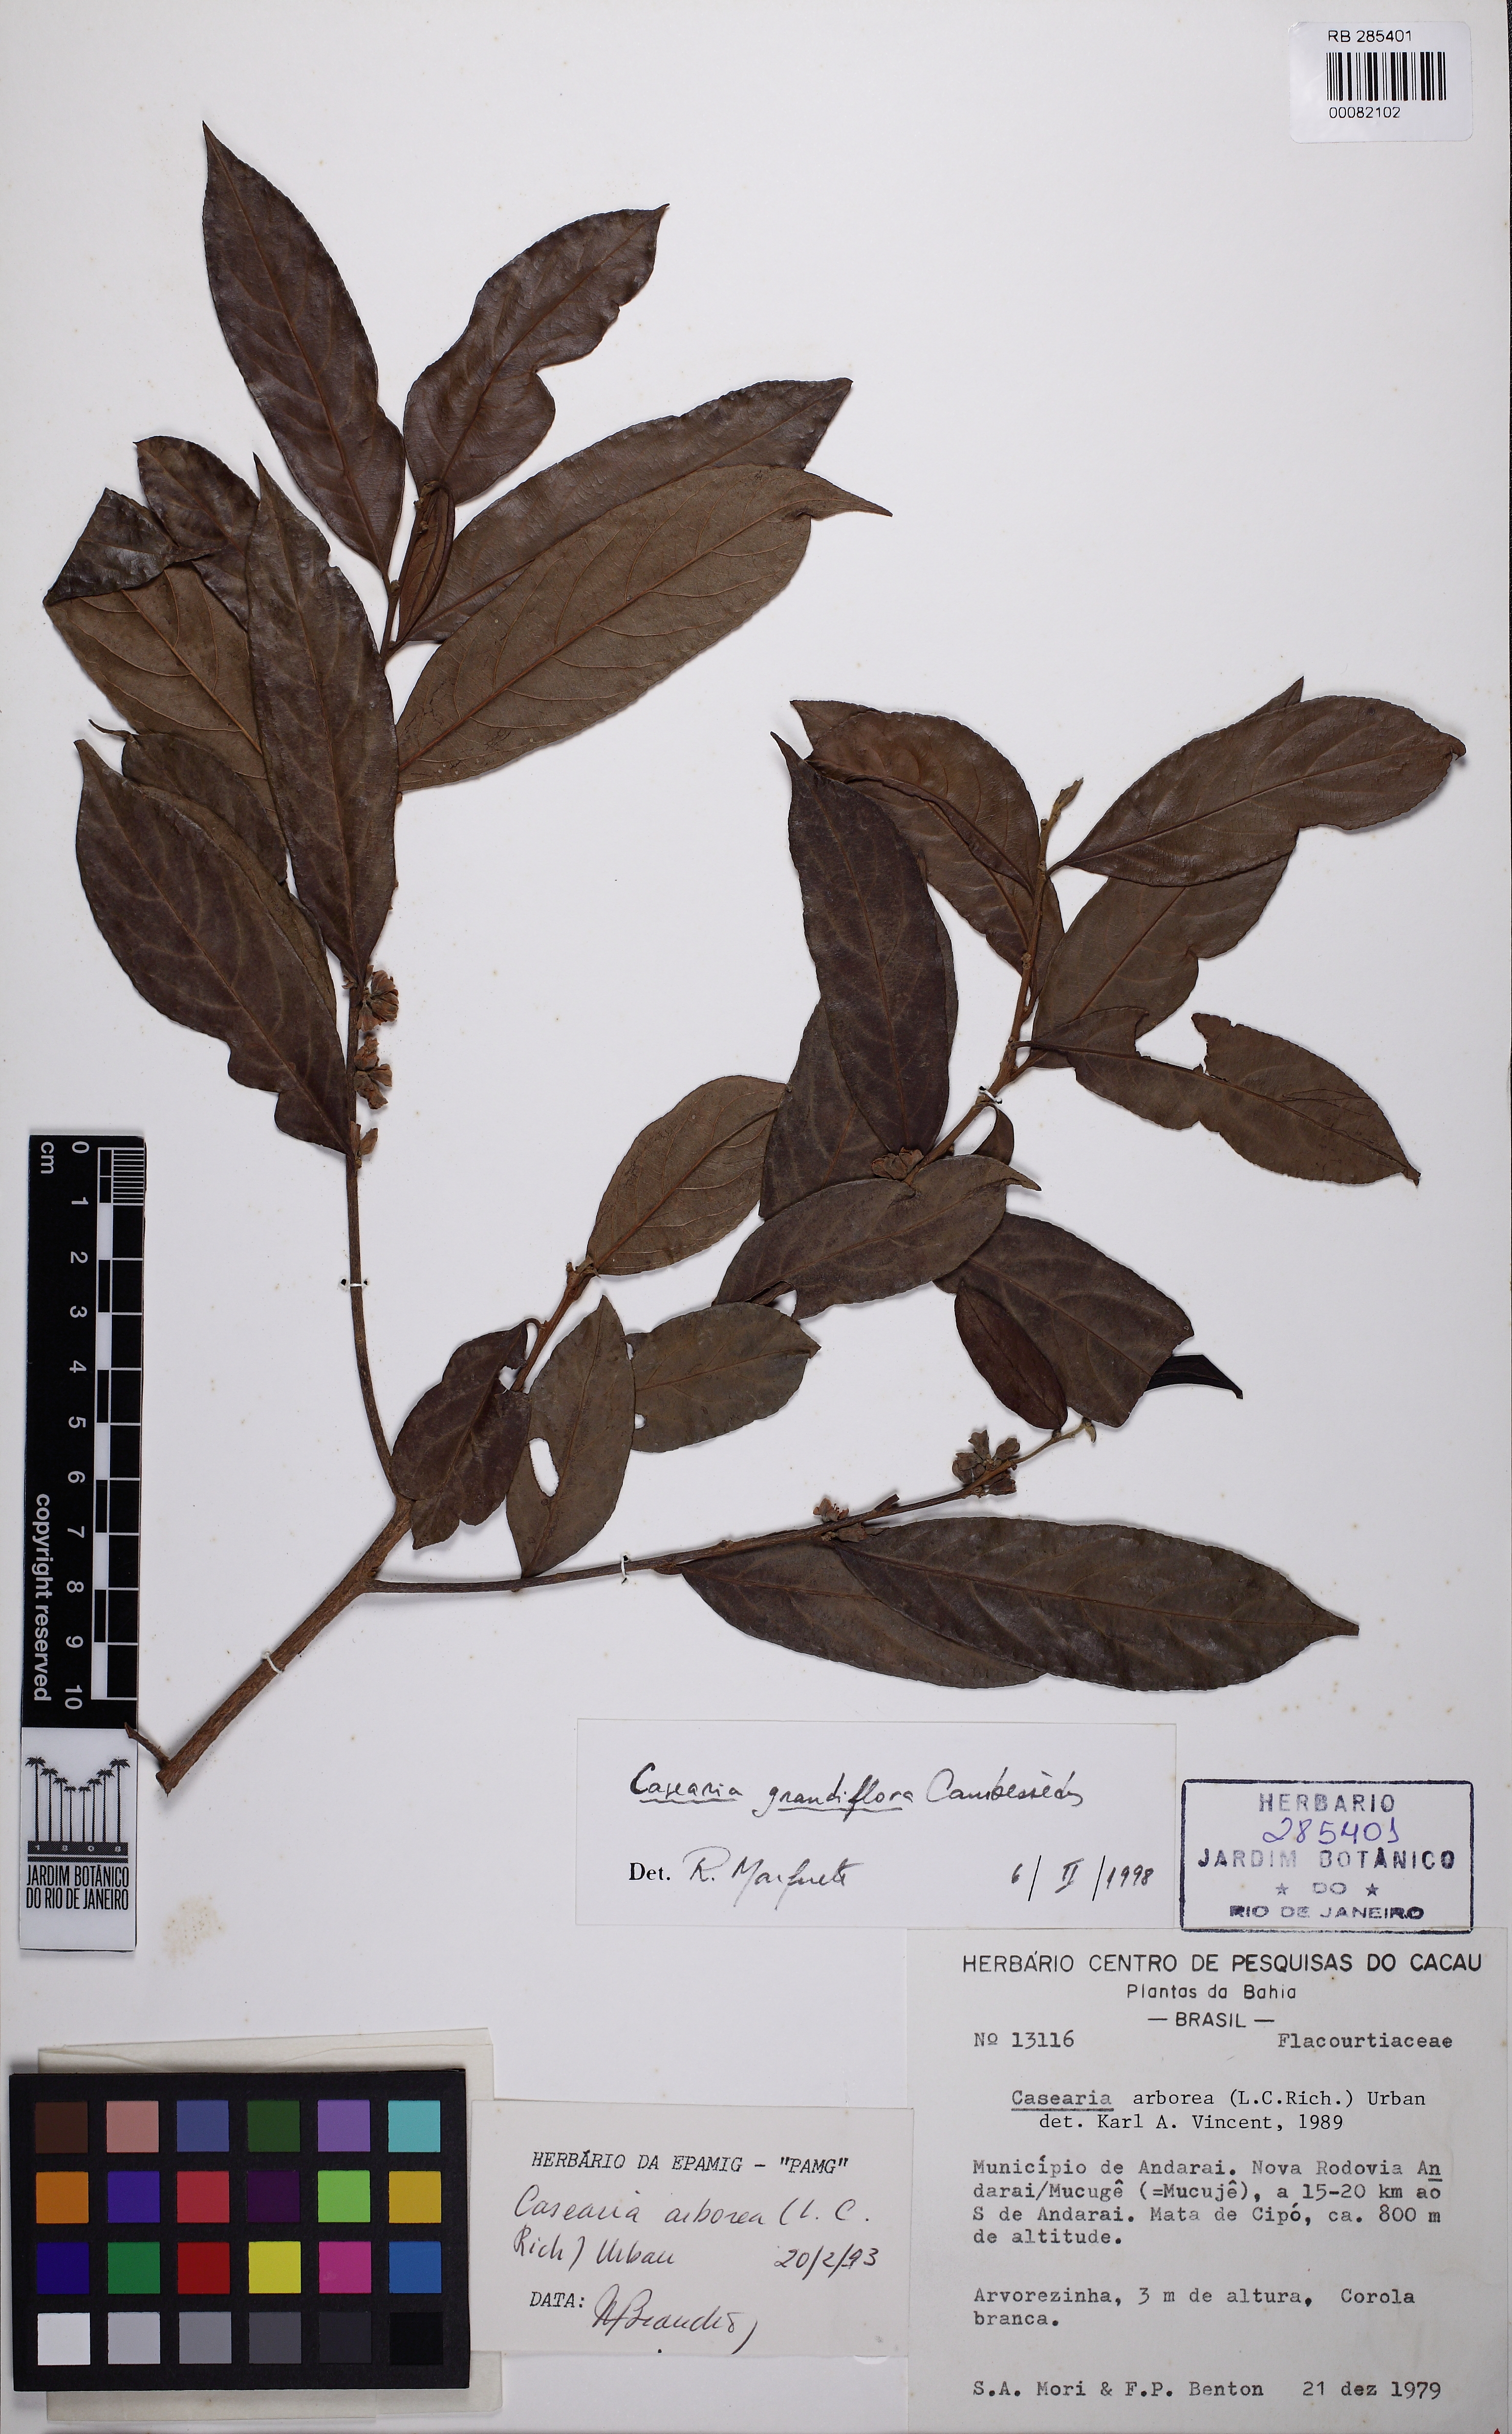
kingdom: Plantae
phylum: Tracheophyta
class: Magnoliopsida
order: Malpighiales
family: Salicaceae
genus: Casearia
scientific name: Casearia grandiflora
